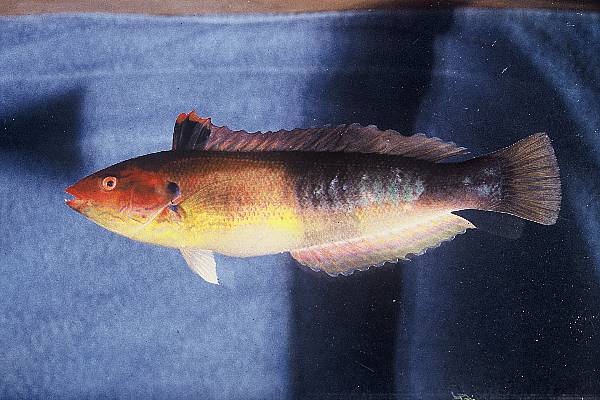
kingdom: Animalia
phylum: Chordata
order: Perciformes
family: Labridae
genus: Coris
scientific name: Coris julis
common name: Rainbow wrasse
